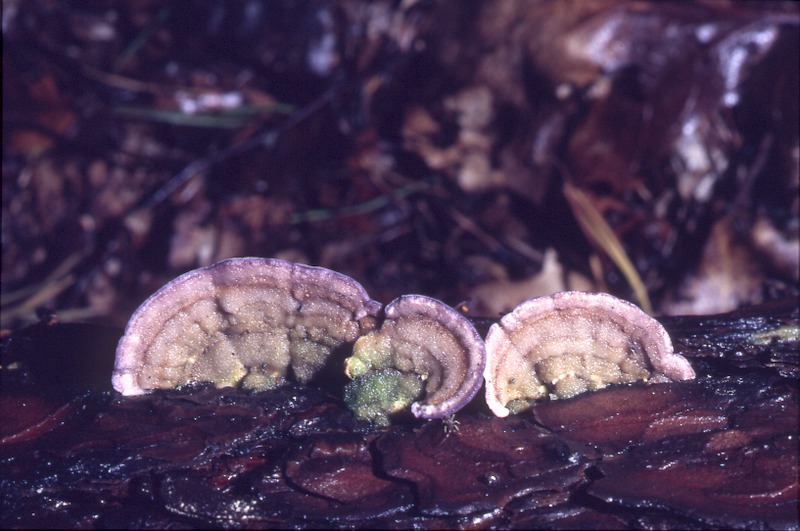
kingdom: Fungi
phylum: Basidiomycota
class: Agaricomycetes
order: Hymenochaetales
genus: Trichaptum
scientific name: Trichaptum abietinum
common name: Purplepore bracket
